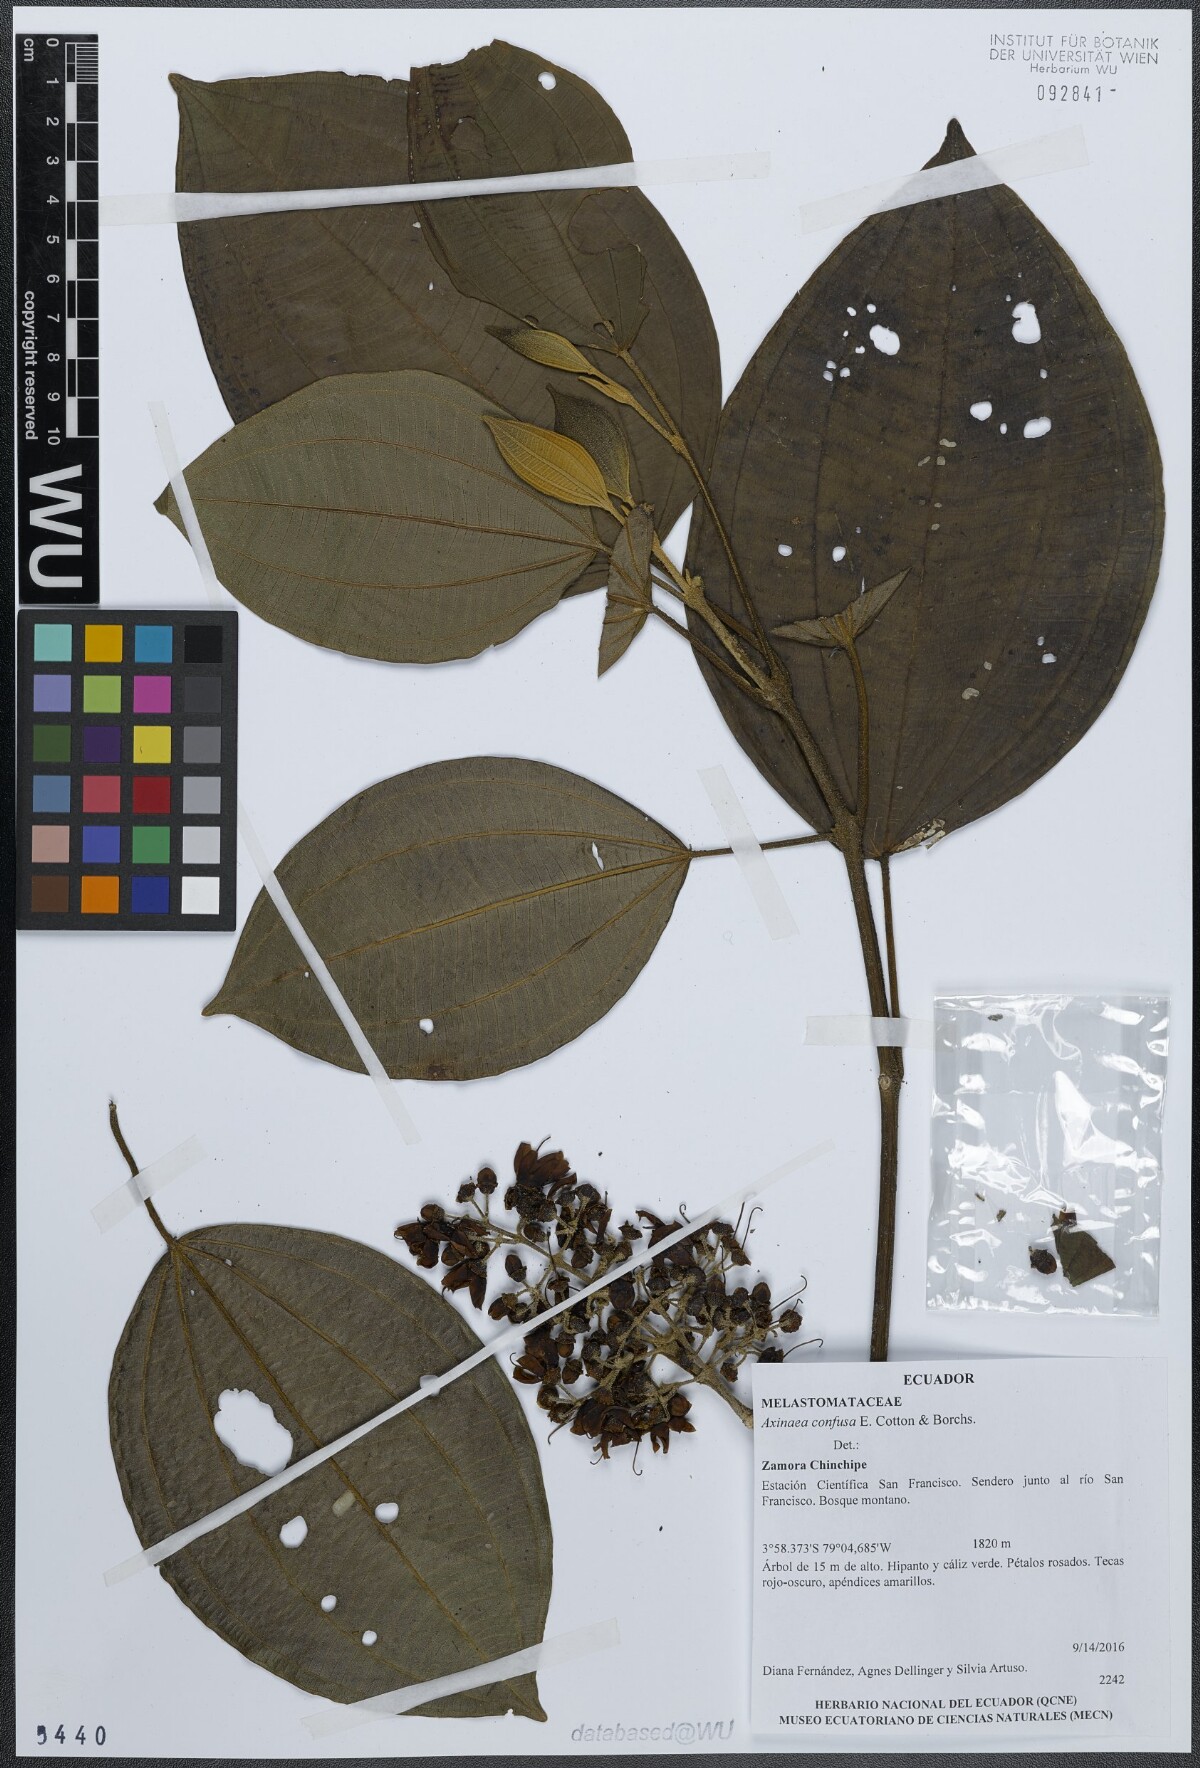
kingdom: Plantae
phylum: Tracheophyta
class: Magnoliopsida
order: Myrtales
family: Melastomataceae
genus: Axinaea
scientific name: Axinaea confusa
